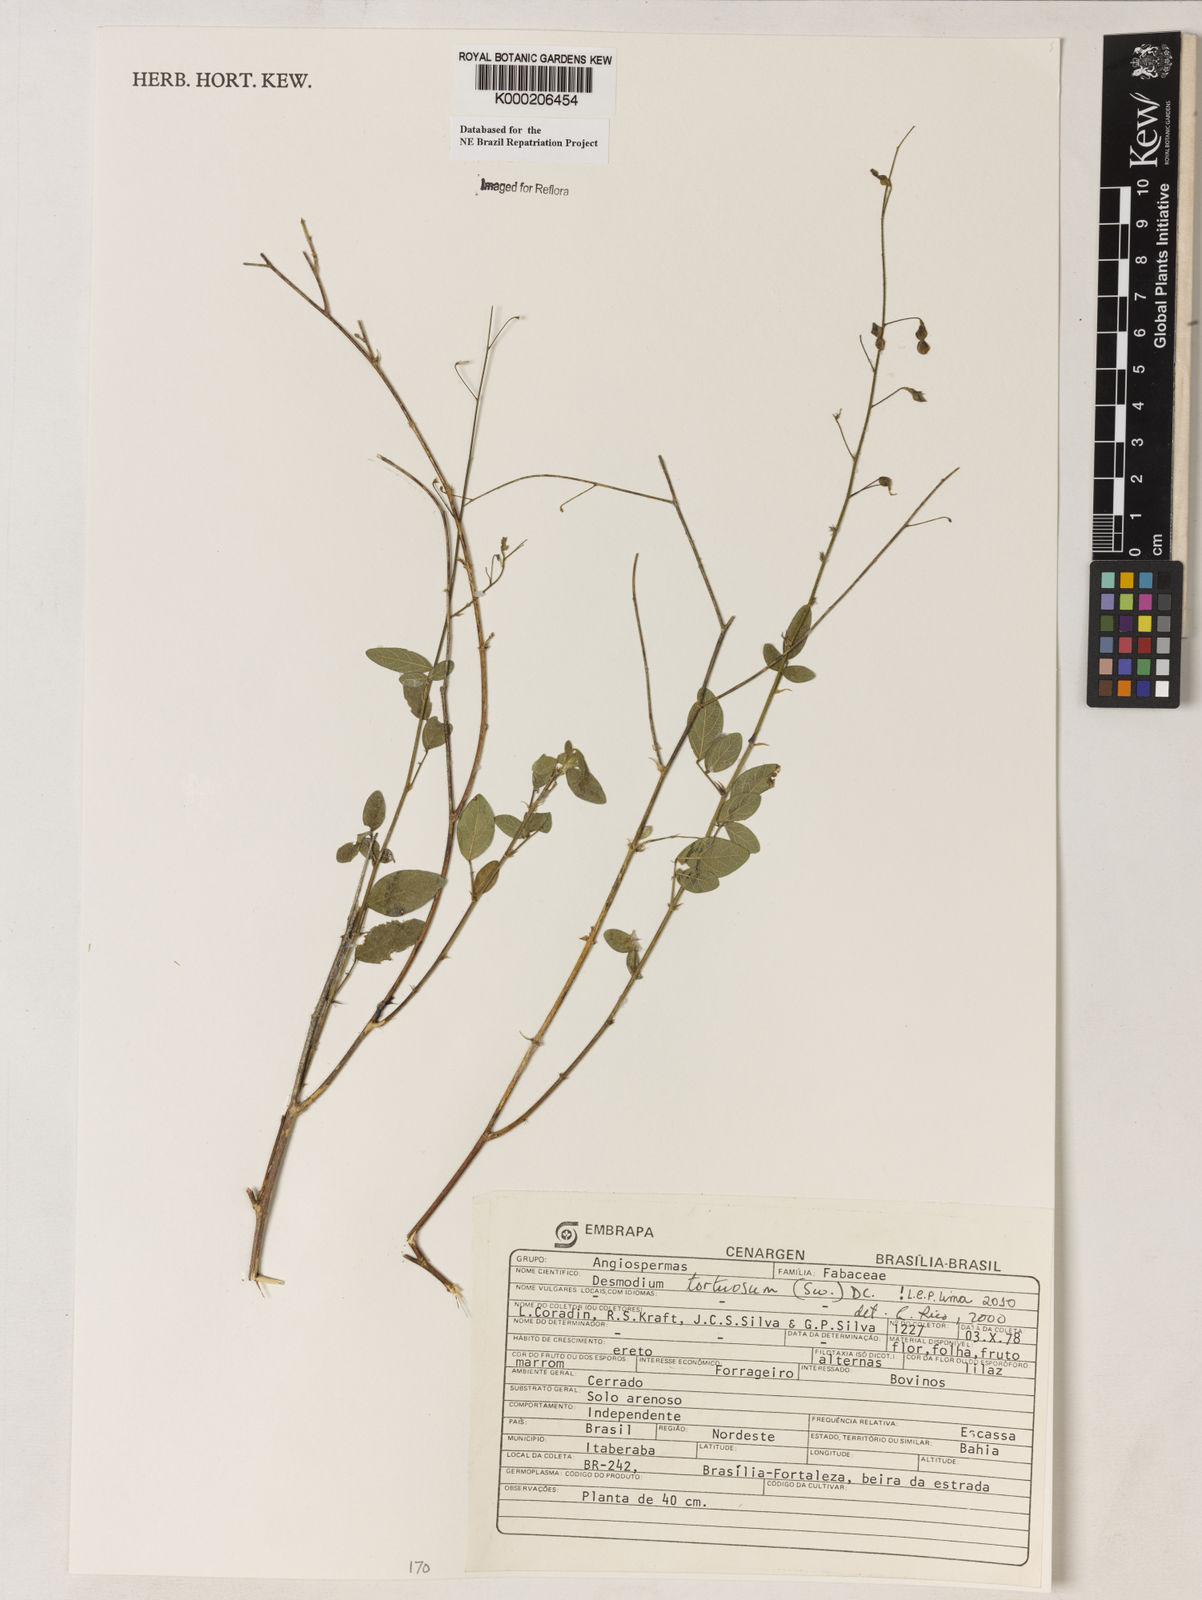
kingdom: Plantae
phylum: Tracheophyta
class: Magnoliopsida
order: Fabales
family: Fabaceae
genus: Desmodium
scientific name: Desmodium tortuosum
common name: Dixie ticktrefoil
